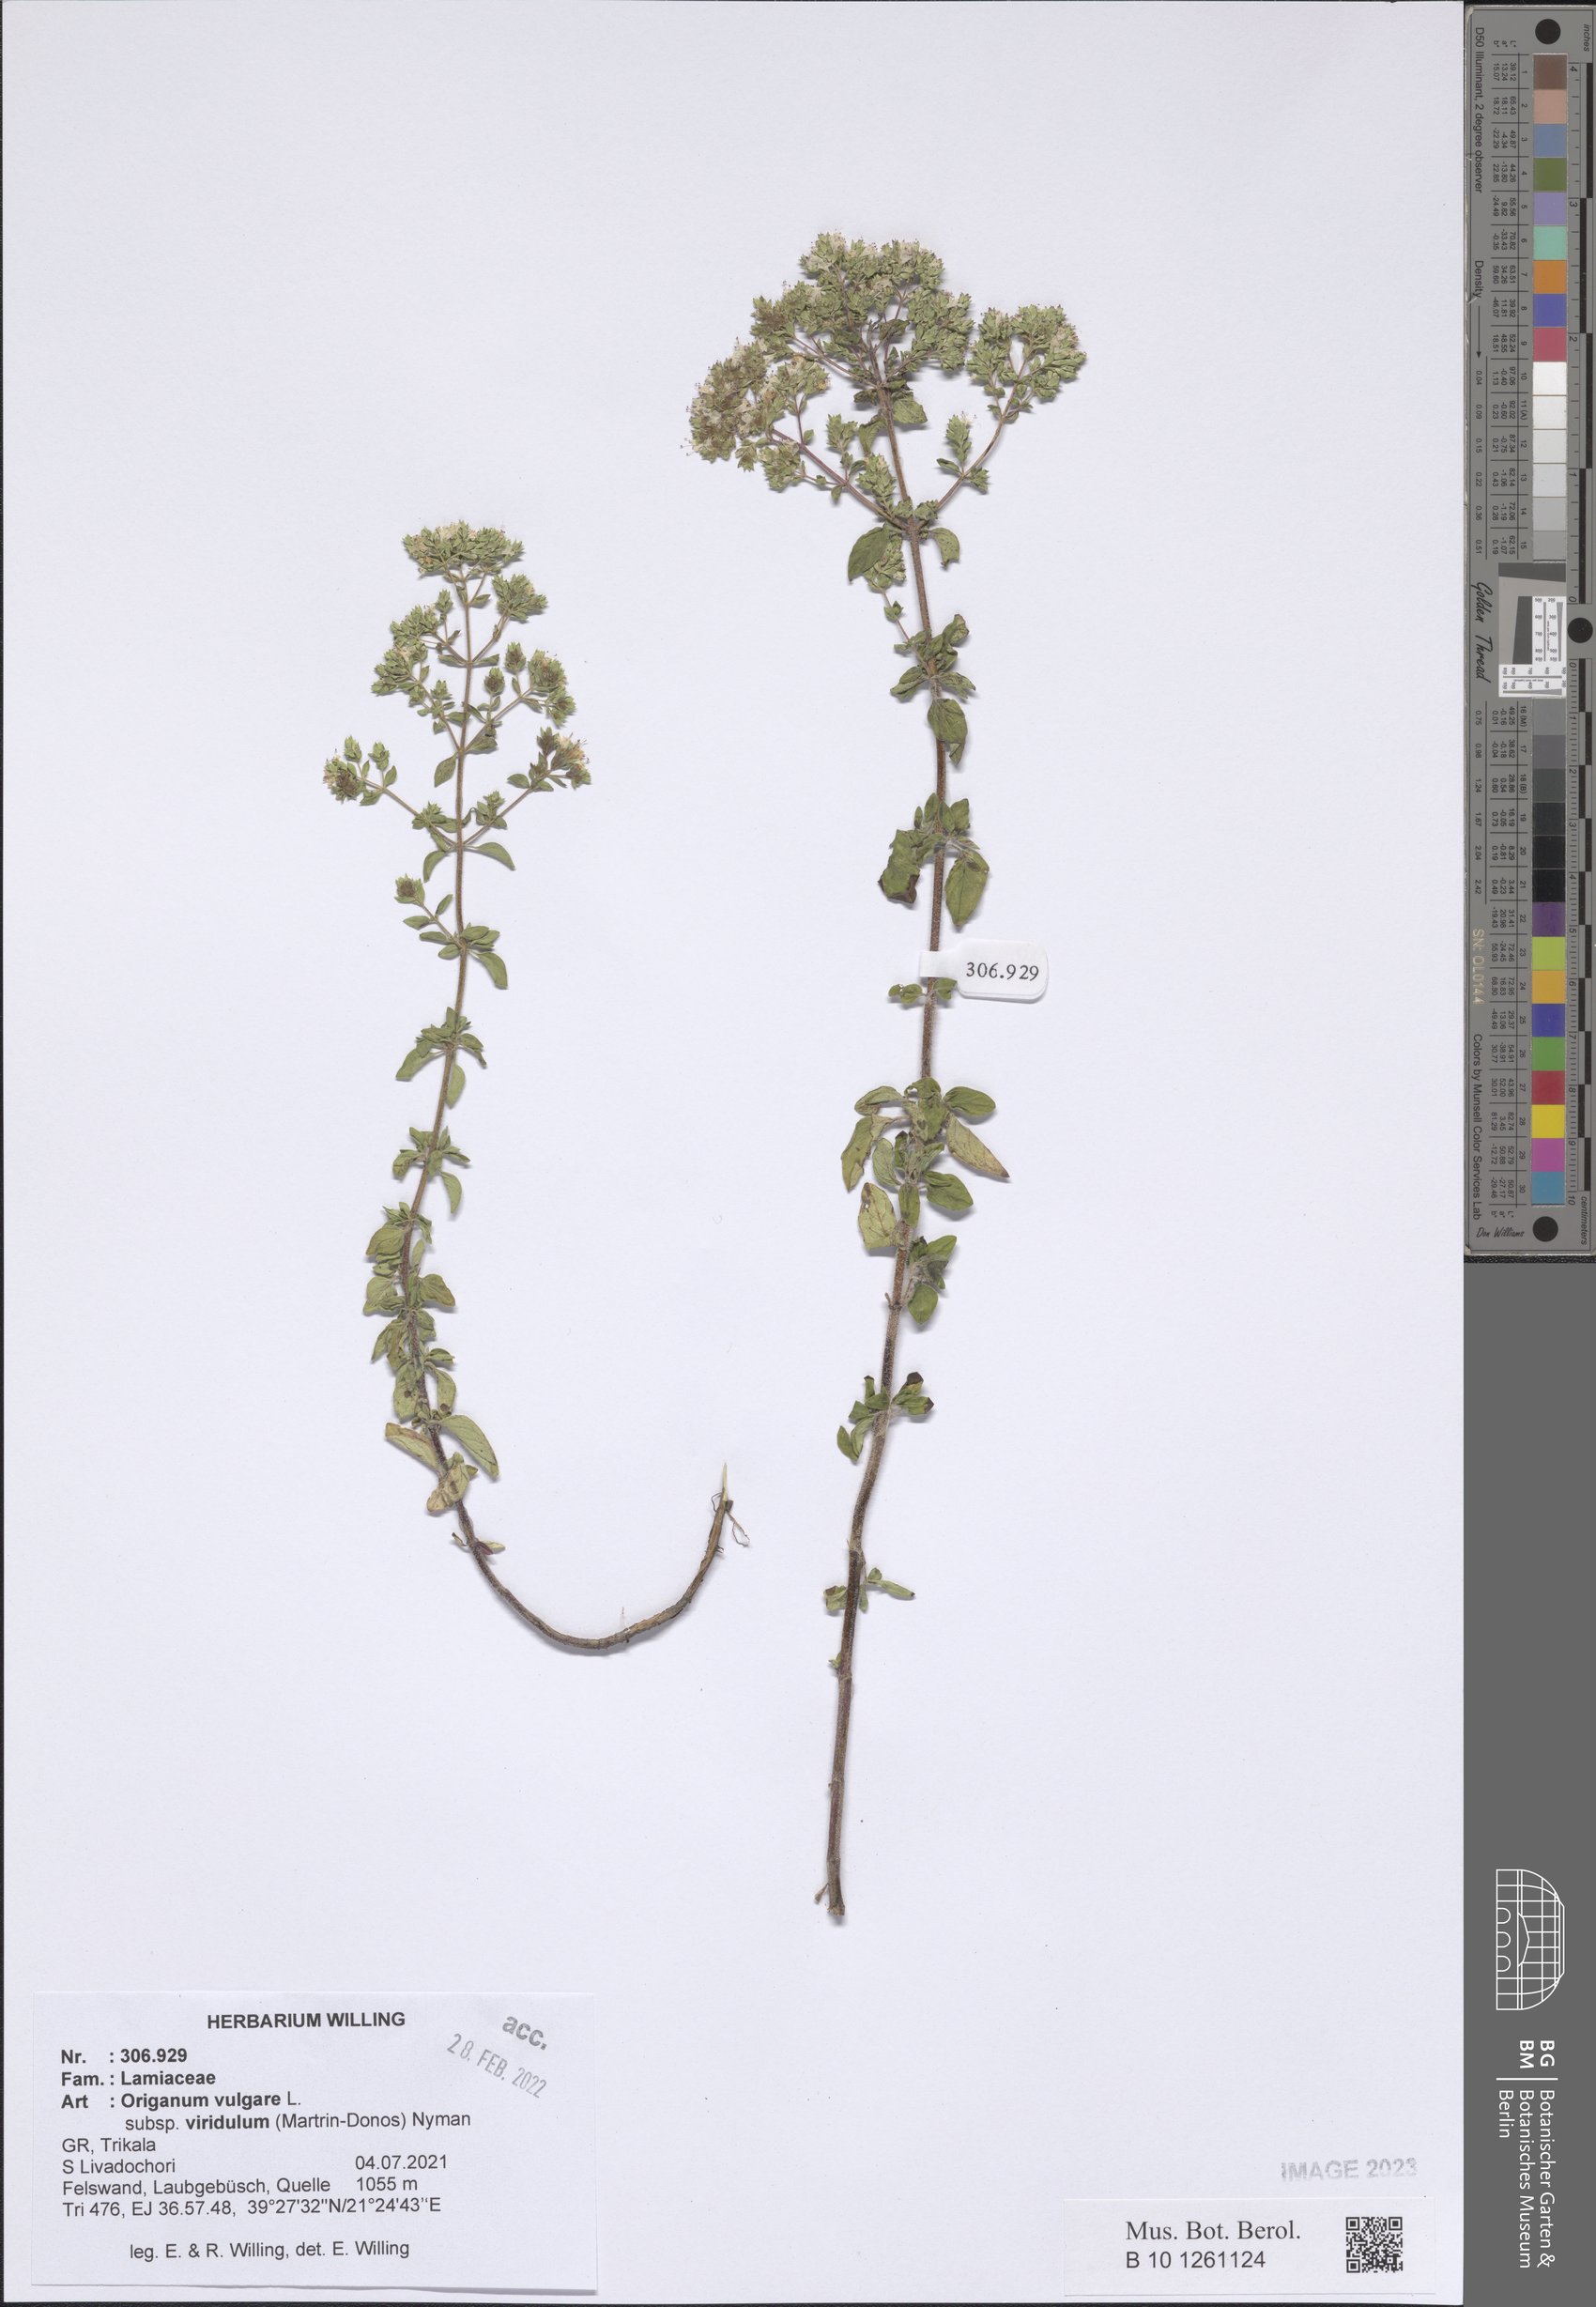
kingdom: Plantae
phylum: Tracheophyta
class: Magnoliopsida
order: Lamiales
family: Lamiaceae
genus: Origanum
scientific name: Origanum vulgare
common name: Wild marjoram
